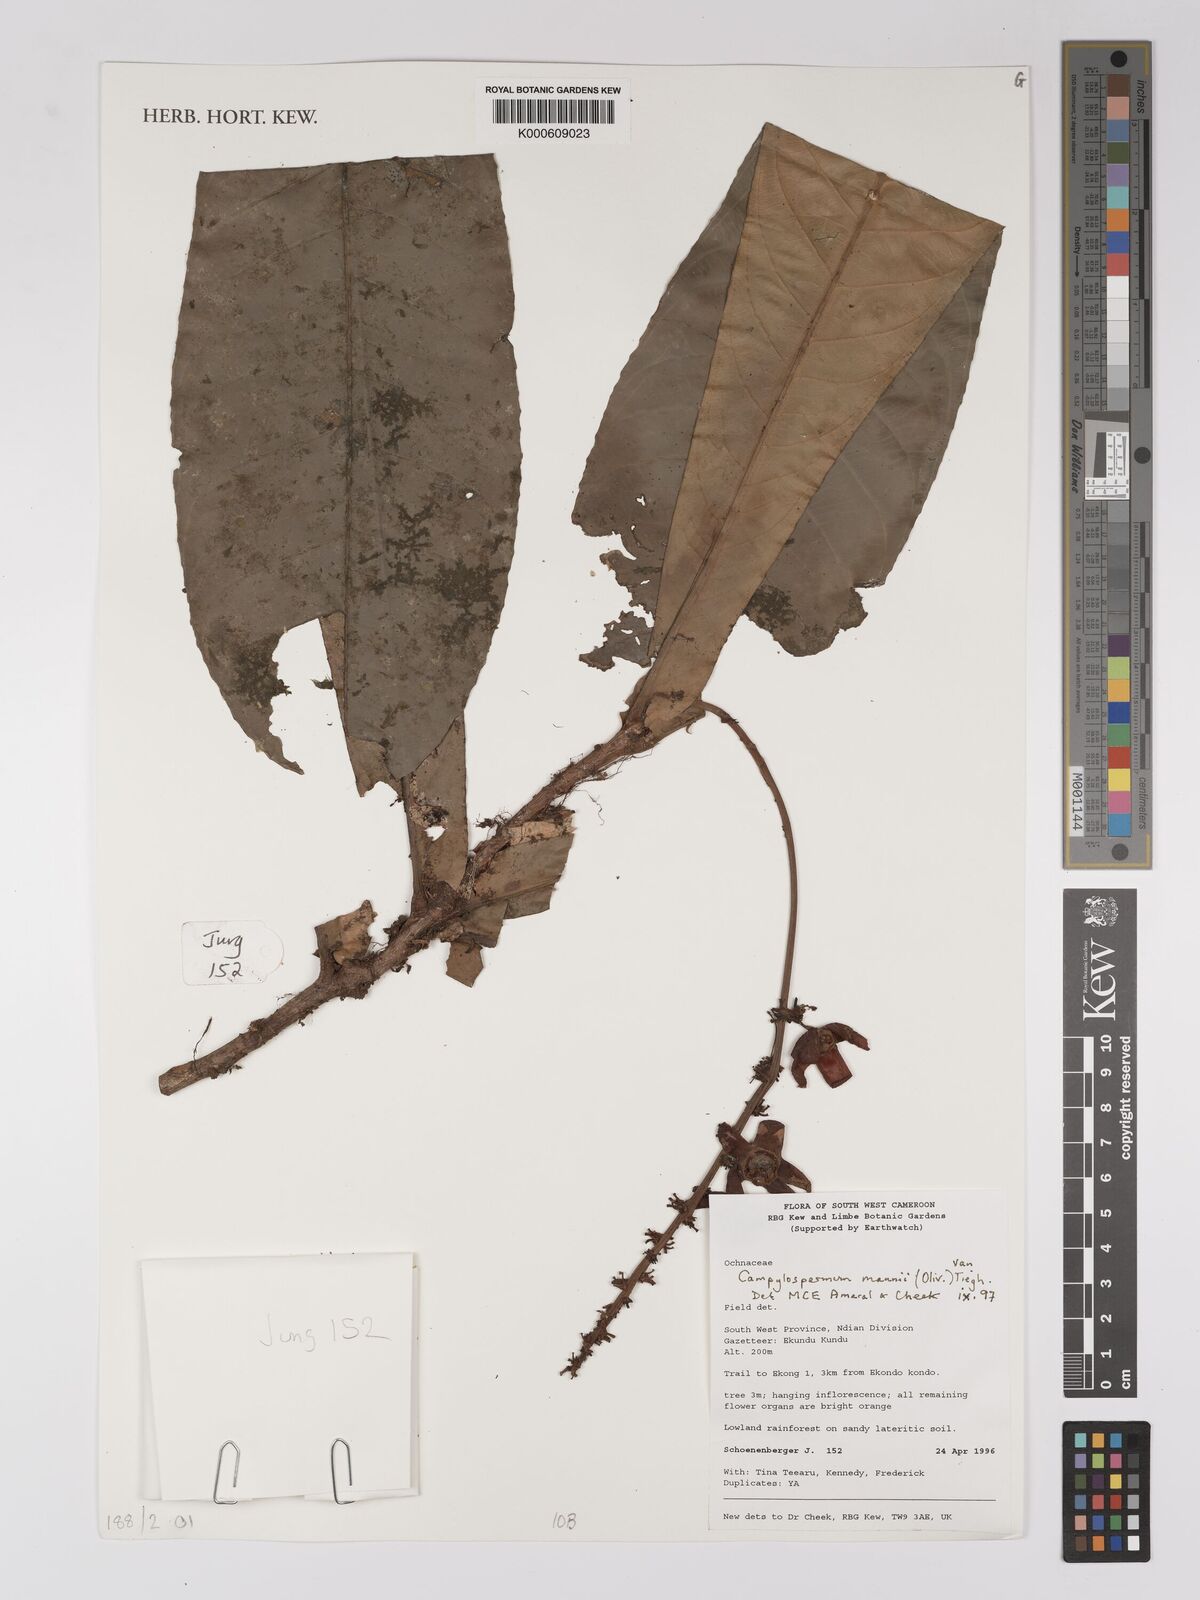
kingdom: Plantae
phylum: Tracheophyta
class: Magnoliopsida
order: Malpighiales
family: Ochnaceae
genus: Campylospermum
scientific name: Campylospermum mannii
